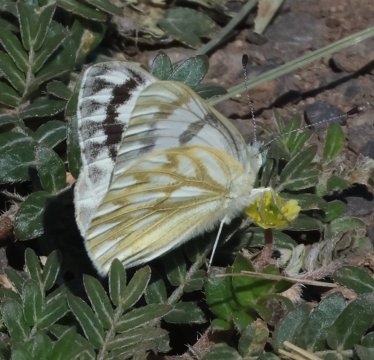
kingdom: Animalia
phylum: Arthropoda
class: Insecta
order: Lepidoptera
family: Pieridae
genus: Neophasia
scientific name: Neophasia menapia
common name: Pine White
